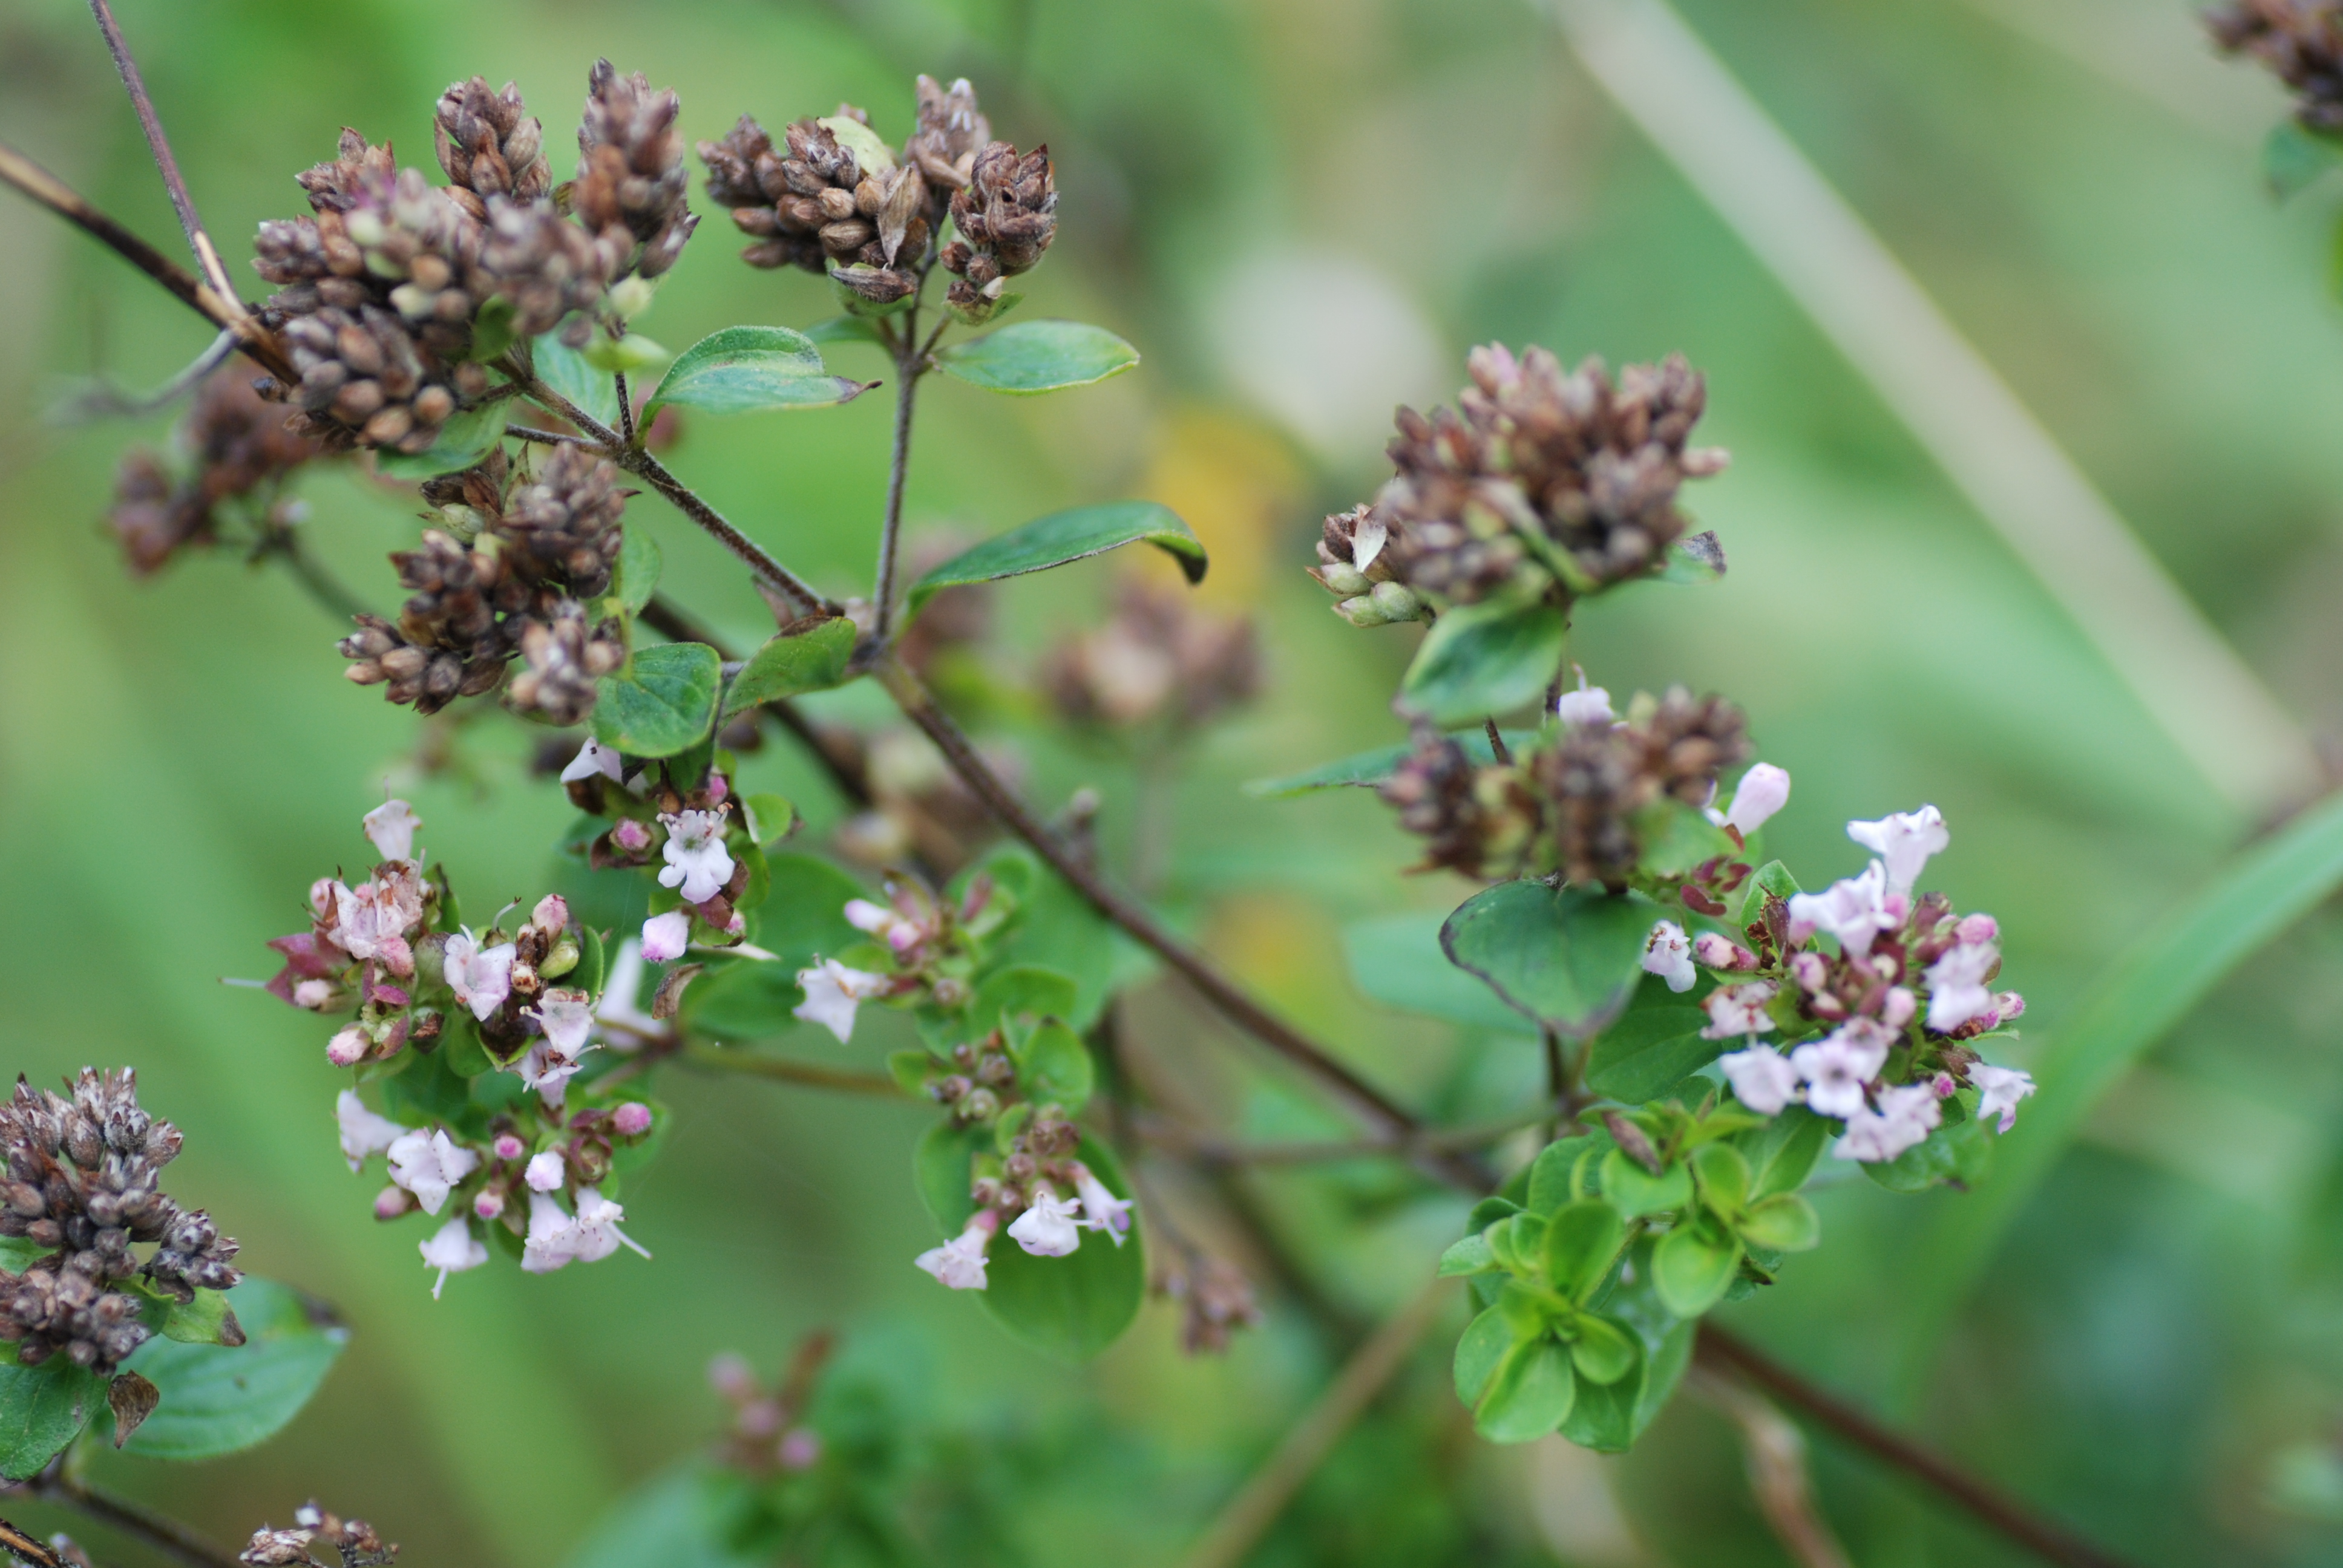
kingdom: Plantae
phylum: Tracheophyta
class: Magnoliopsida
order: Lamiales
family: Lamiaceae
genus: Origanum
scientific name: Origanum vulgare
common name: Wild marjoram
